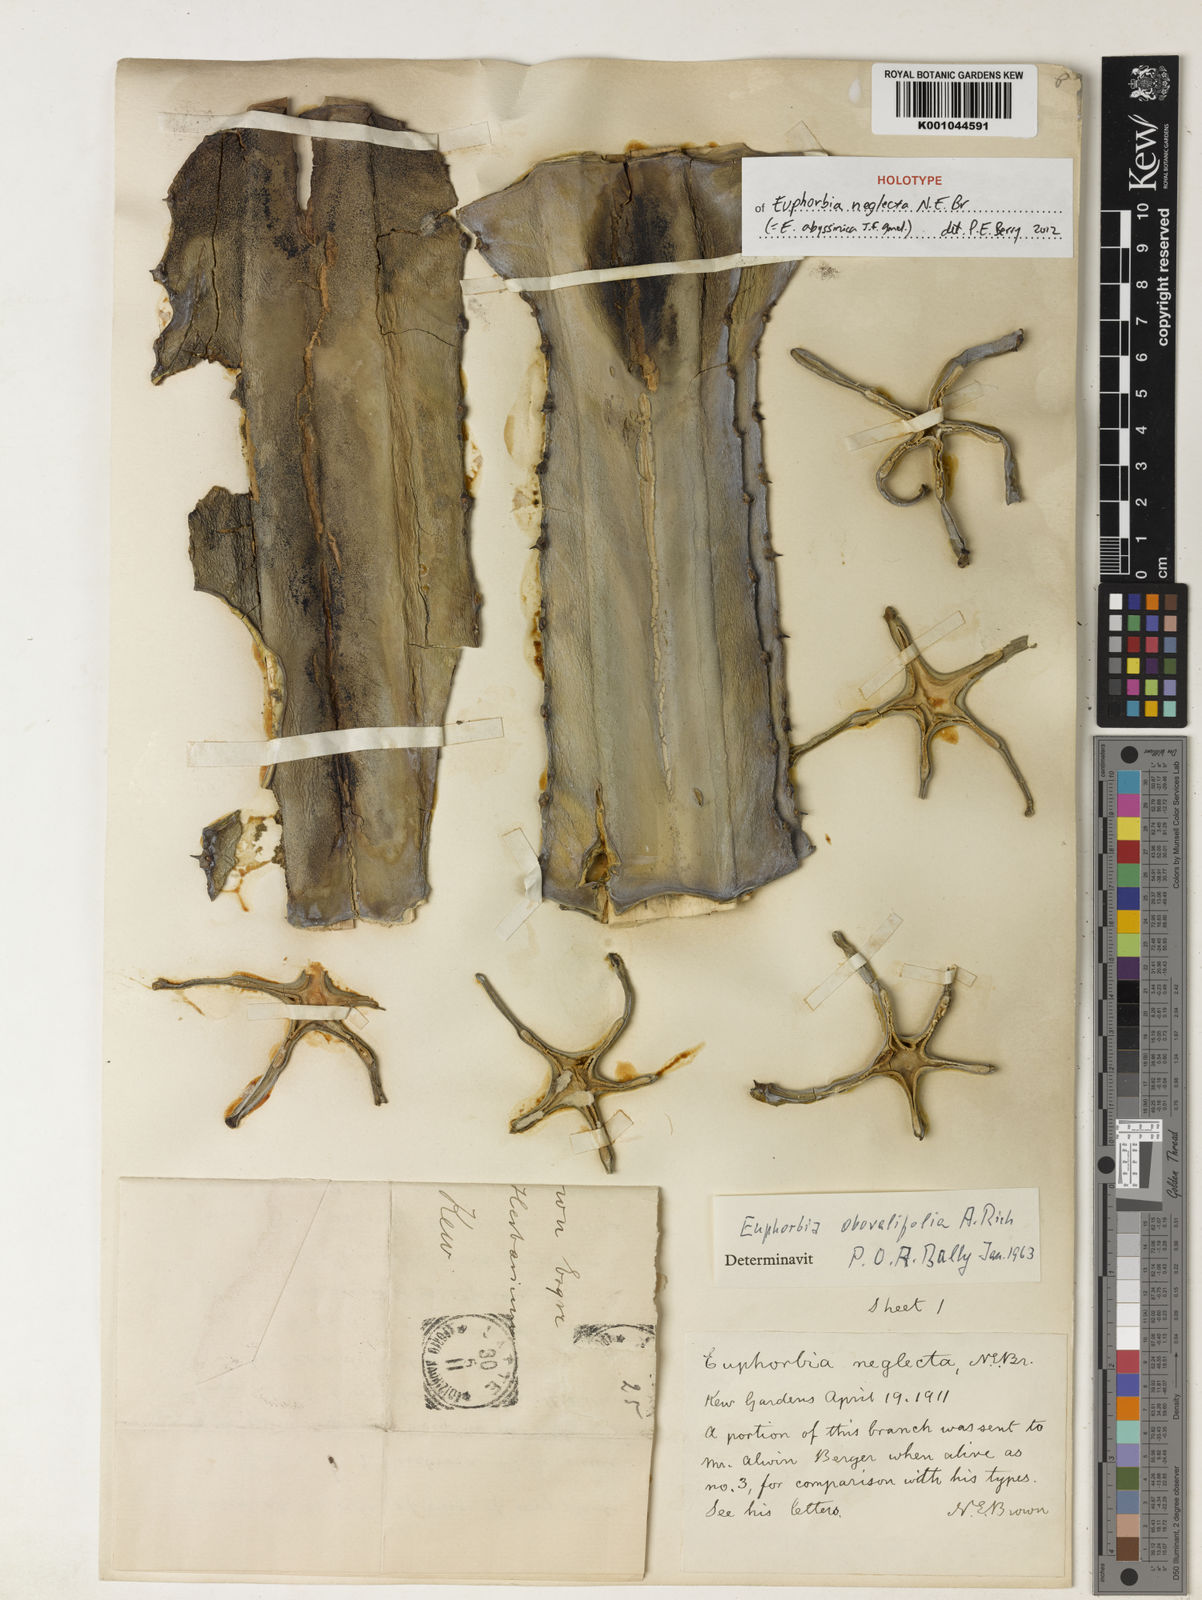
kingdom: Plantae
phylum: Tracheophyta
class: Magnoliopsida
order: Malpighiales
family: Euphorbiaceae
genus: Euphorbia
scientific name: Euphorbia abyssinica
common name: Abyssinian spurge
